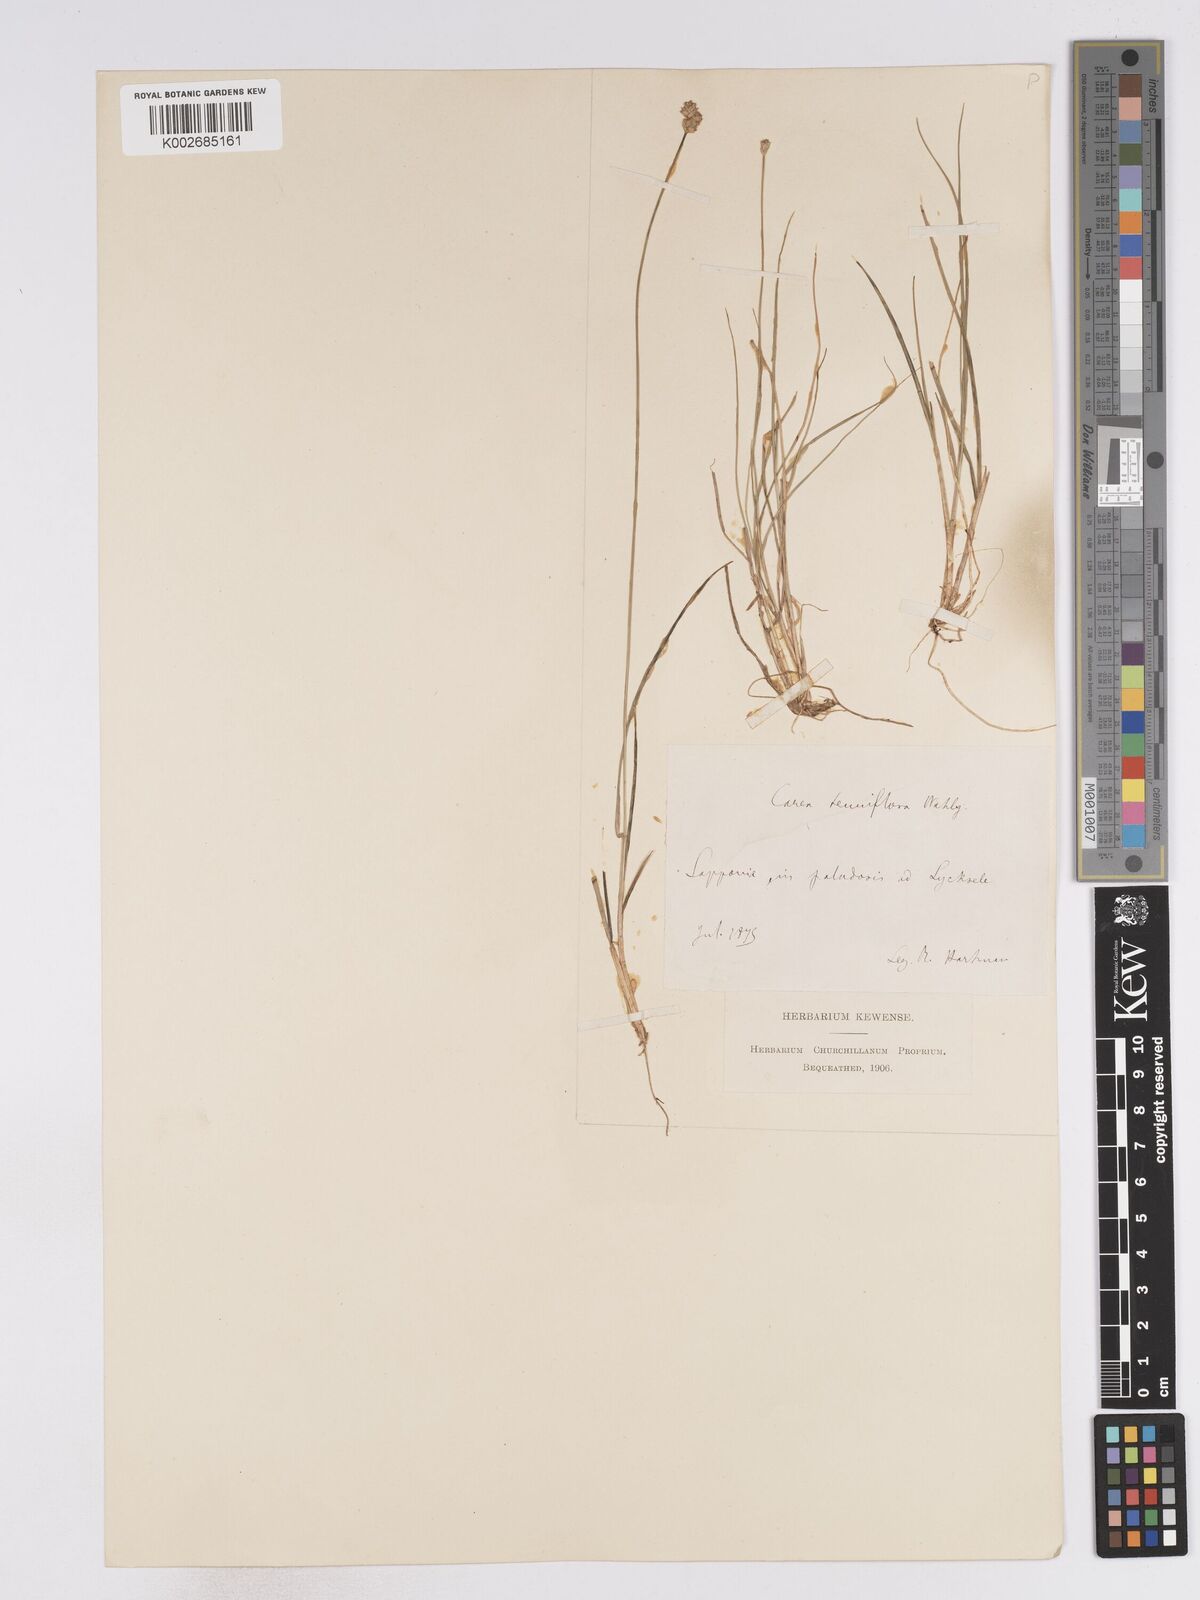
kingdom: Plantae
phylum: Tracheophyta
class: Liliopsida
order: Poales
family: Cyperaceae
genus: Carex
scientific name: Carex tenuiflora
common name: Sparse-flowered sedge
